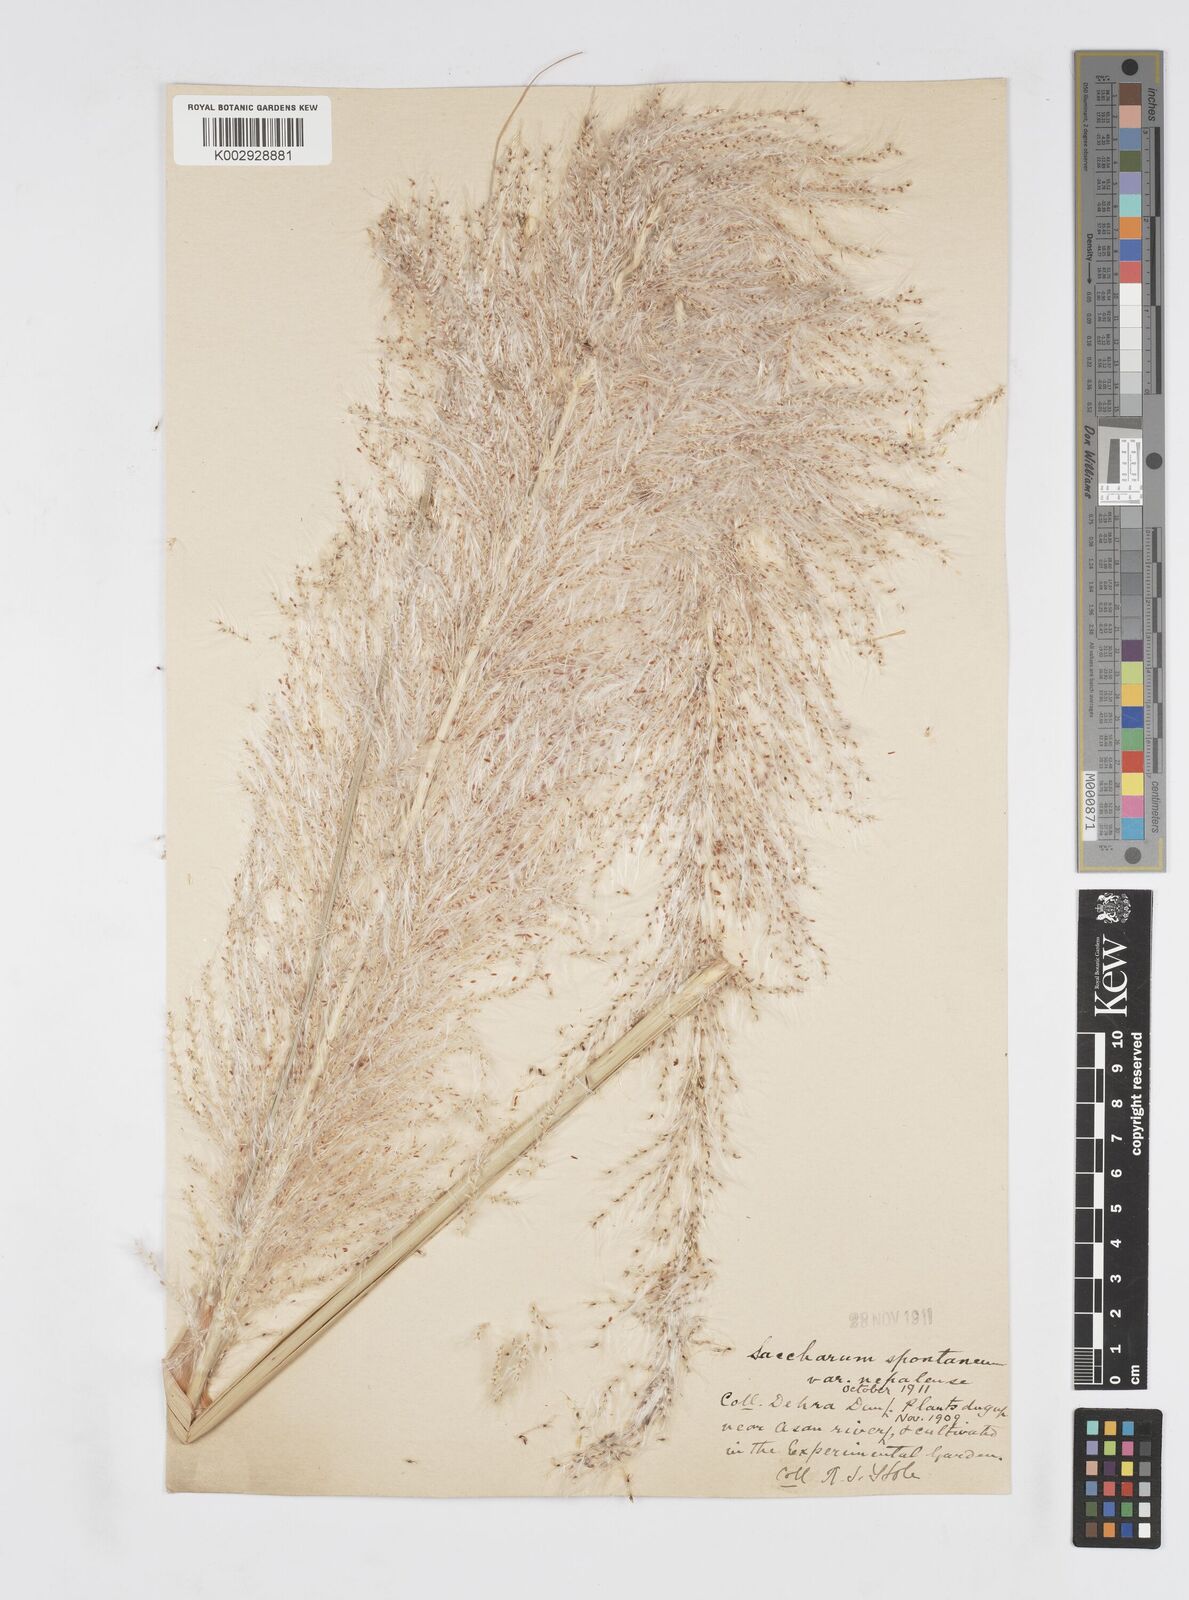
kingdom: Plantae
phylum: Tracheophyta
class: Liliopsida
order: Poales
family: Poaceae
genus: Saccharum
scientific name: Saccharum spontaneum
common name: Wild sugarcane
